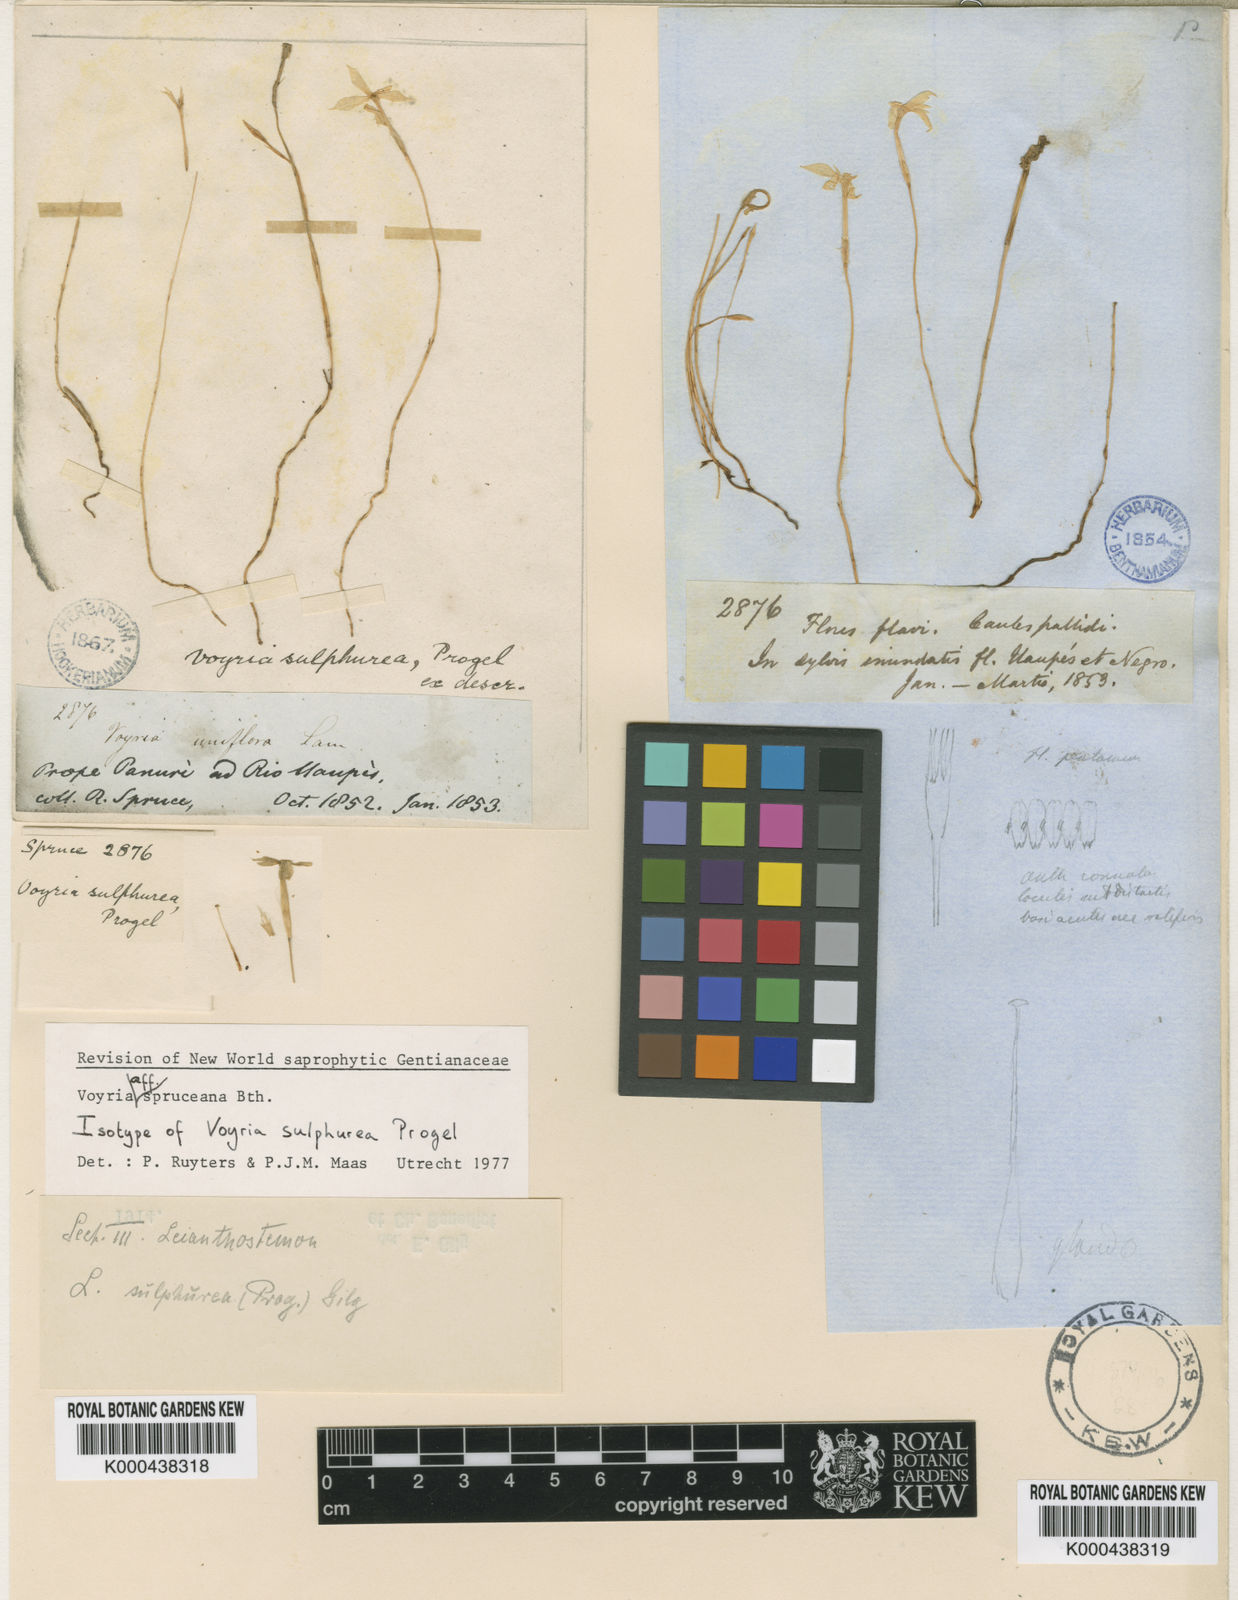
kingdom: Plantae
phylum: Tracheophyta
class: Magnoliopsida
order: Gentianales
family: Gentianaceae
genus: Voyria
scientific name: Voyria spruceana
